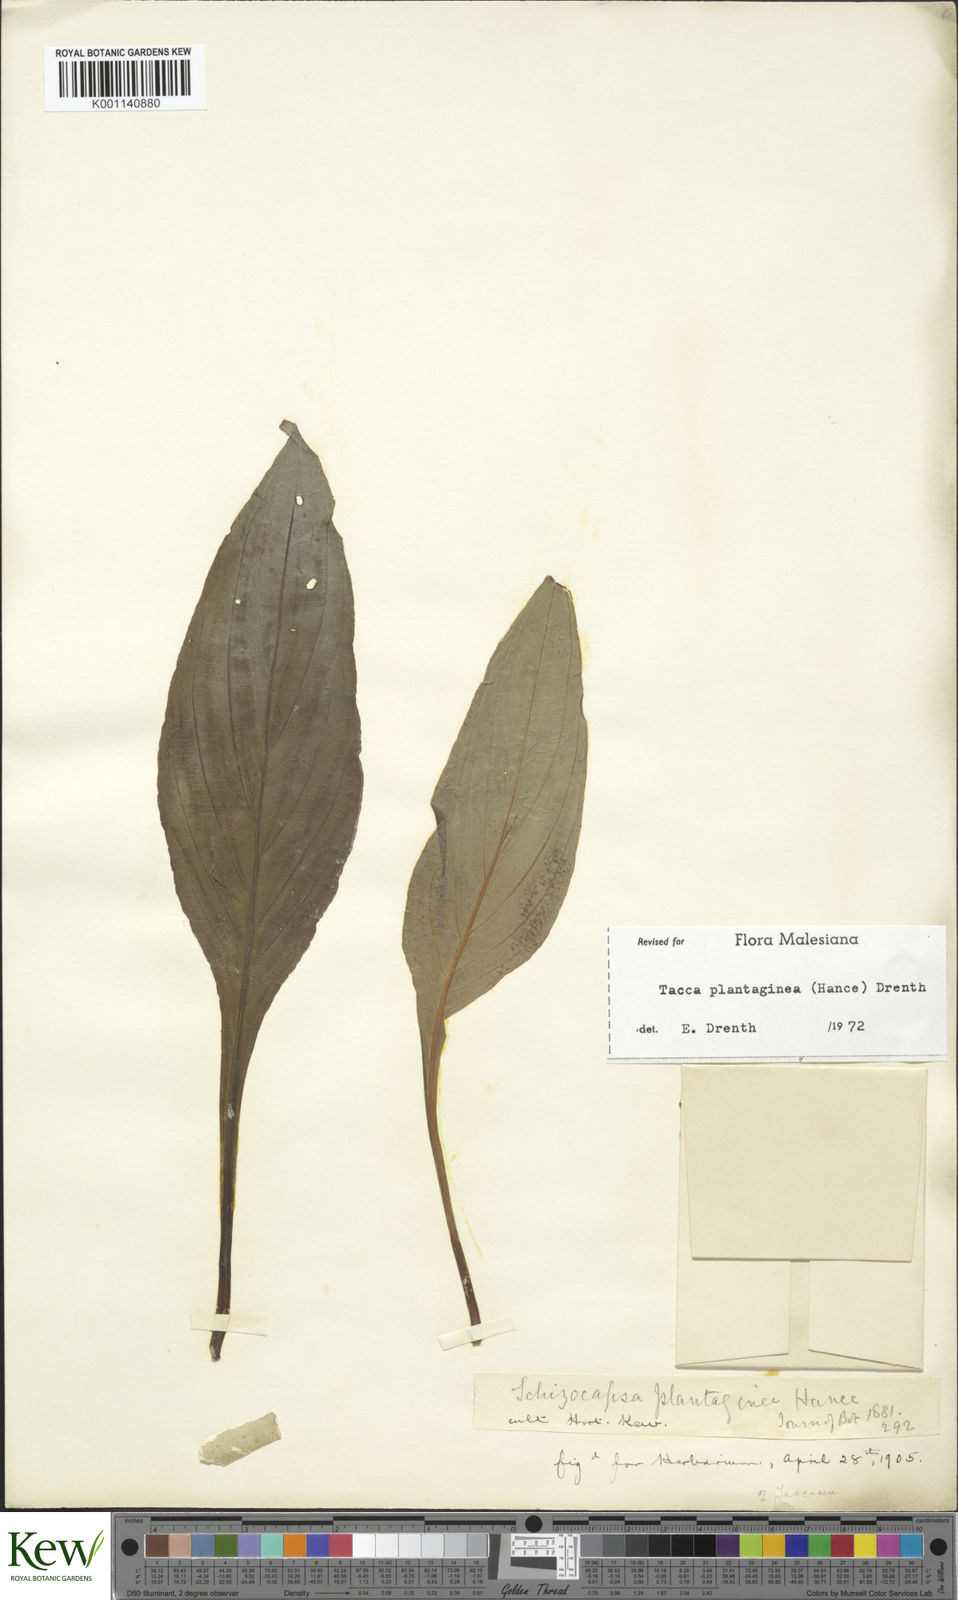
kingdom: Plantae
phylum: Tracheophyta
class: Liliopsida
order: Dioscoreales
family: Dioscoreaceae
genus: Tacca
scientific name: Tacca plantaginea
